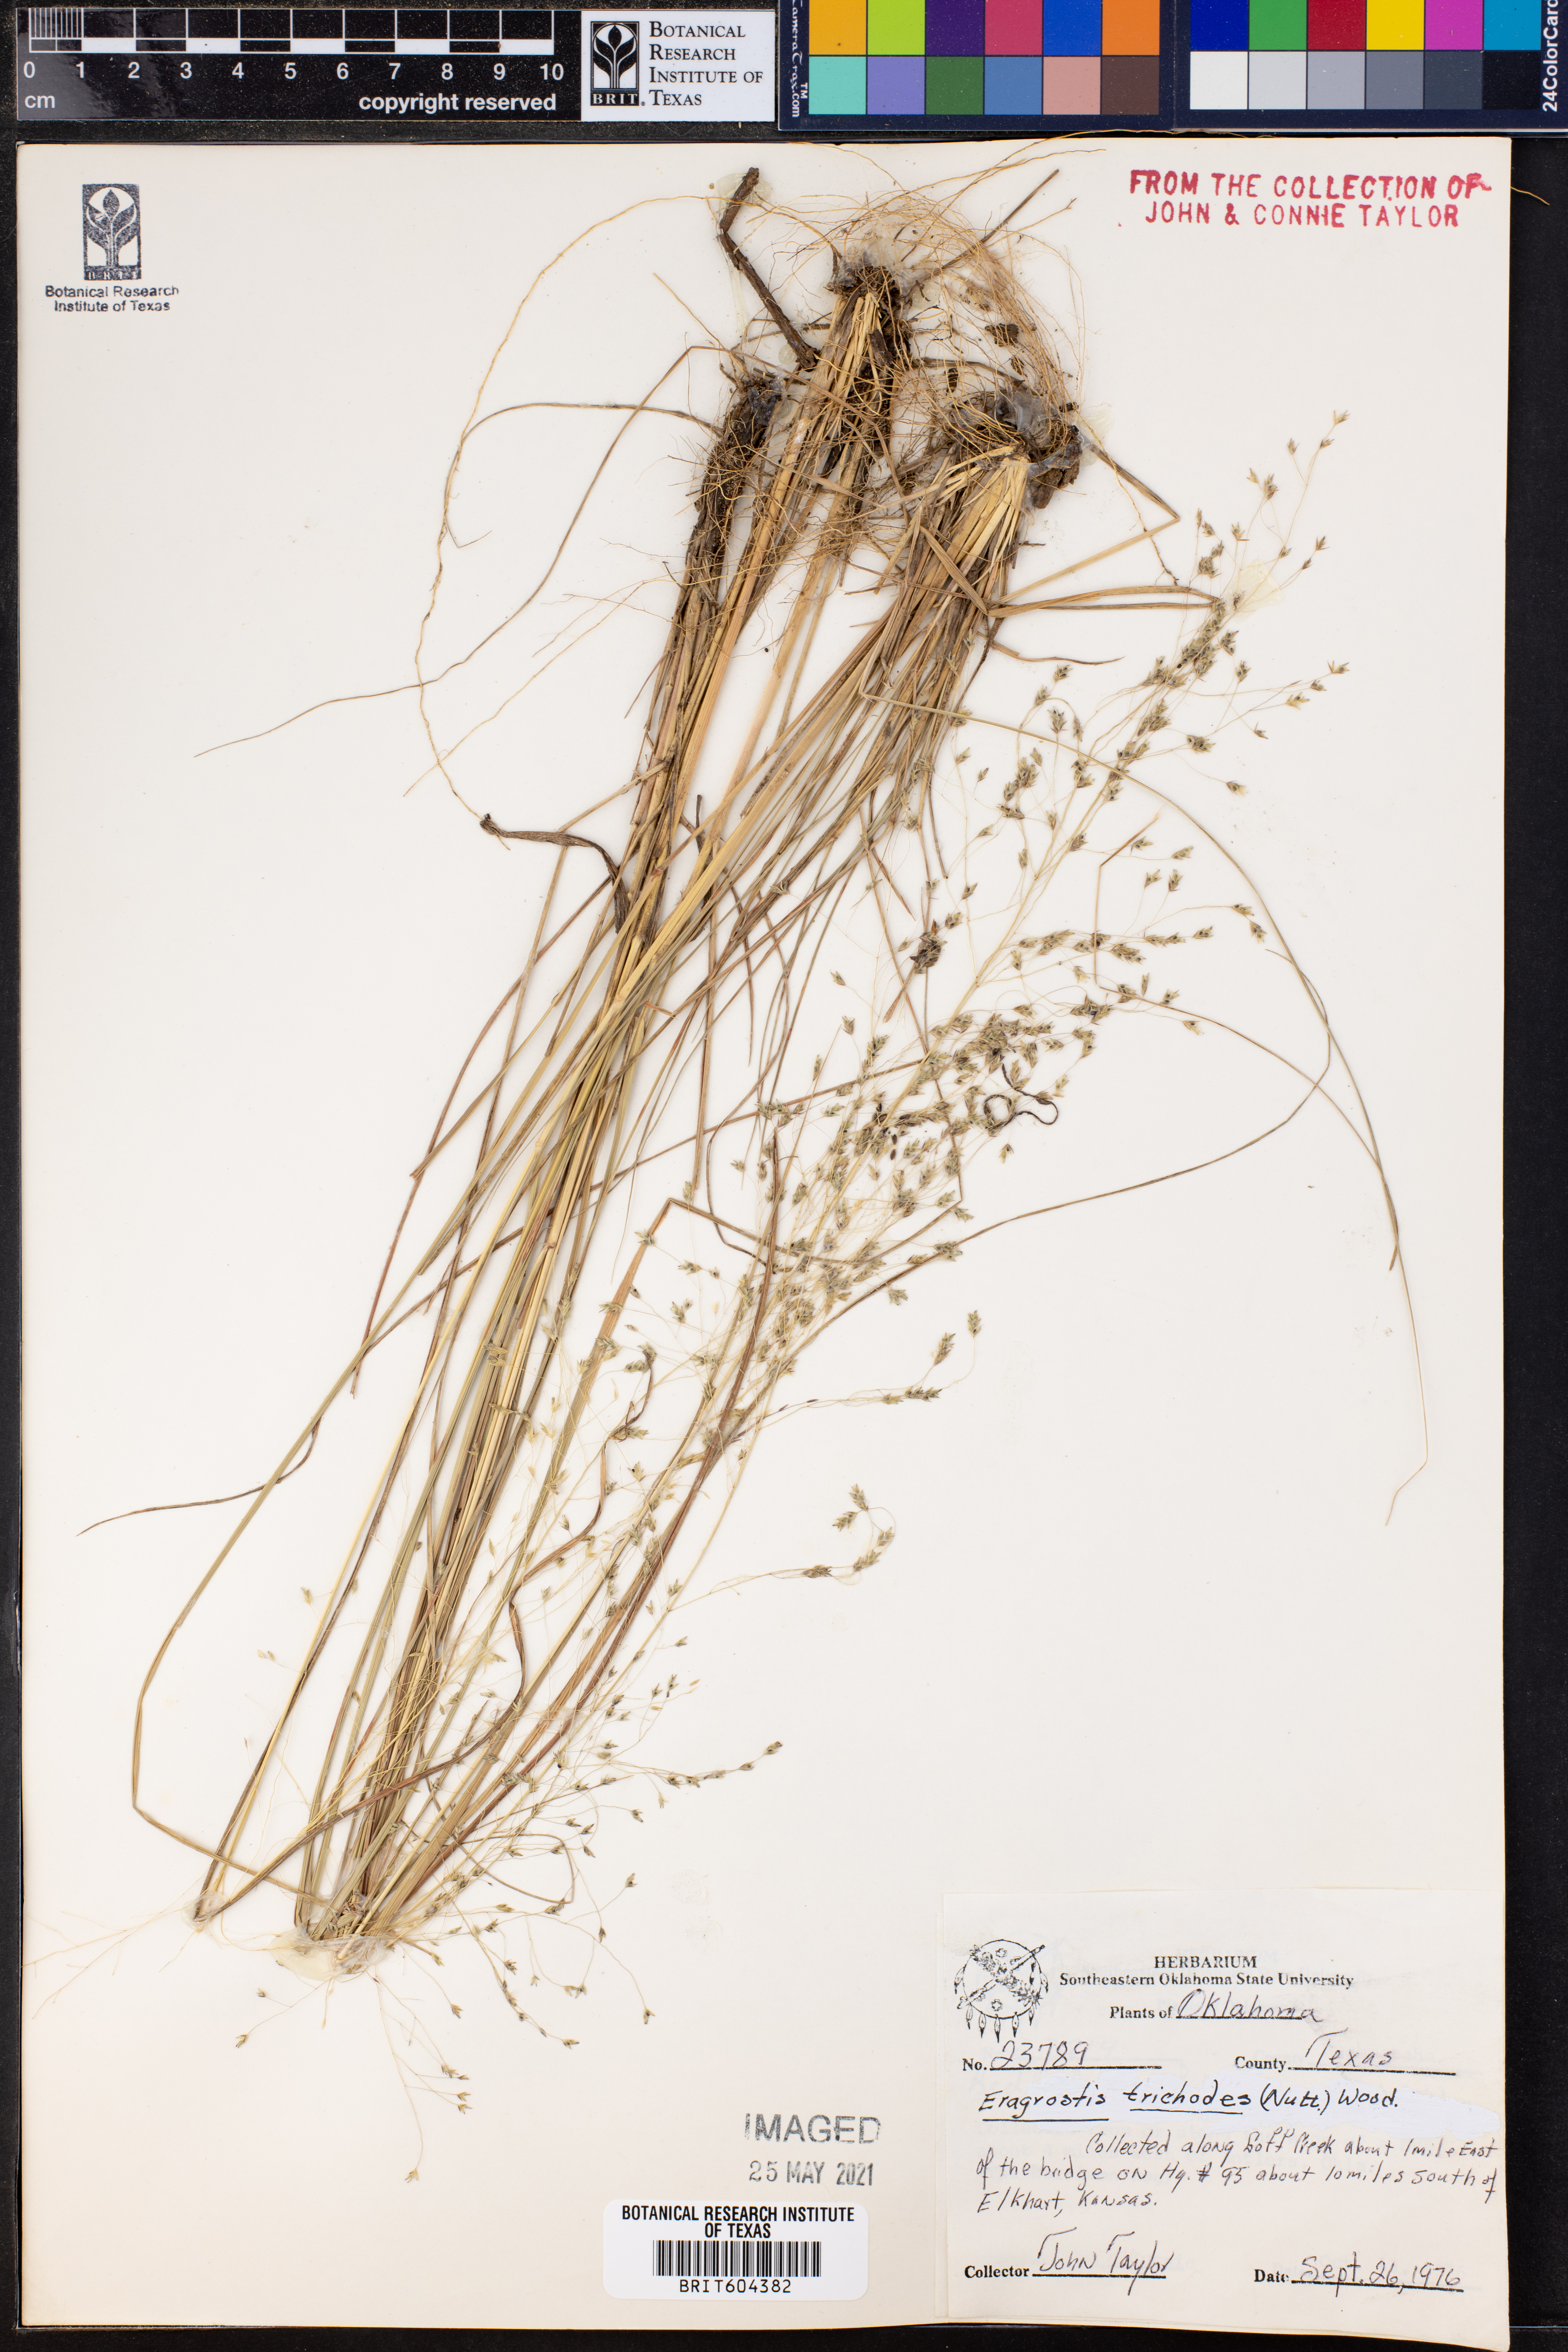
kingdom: Plantae
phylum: Tracheophyta
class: Liliopsida
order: Poales
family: Poaceae
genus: Eragrostis
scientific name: Eragrostis trichodes
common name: Sand love grass
